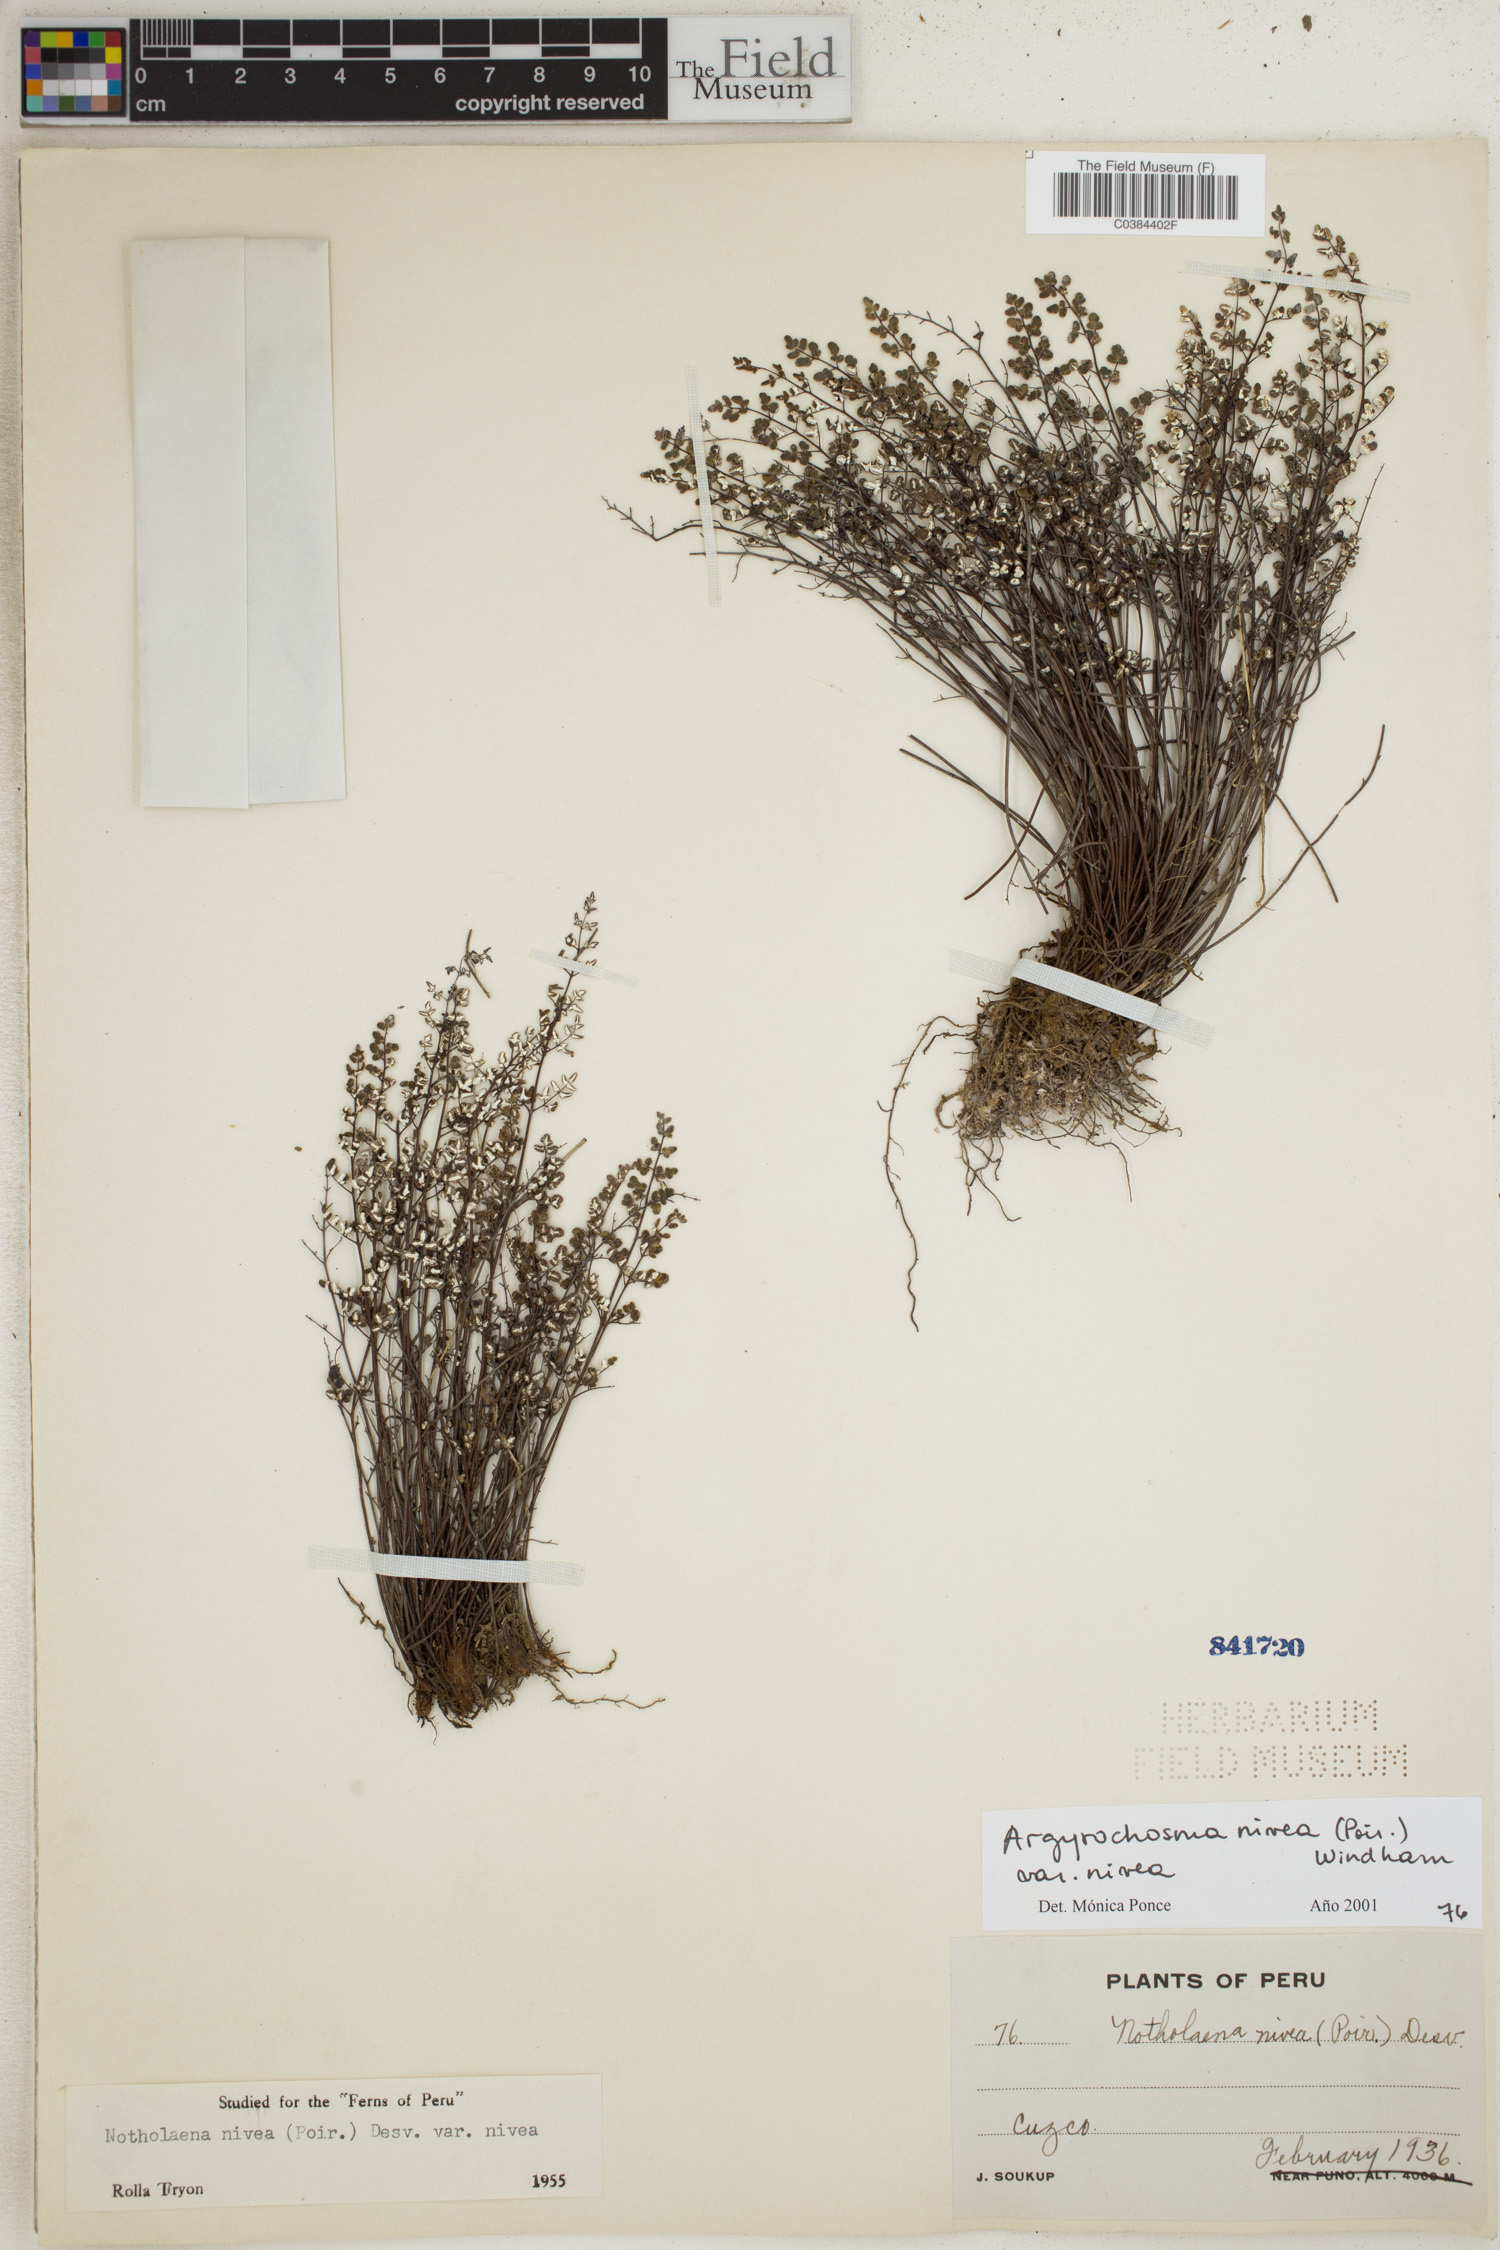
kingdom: Plantae
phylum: Tracheophyta
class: Polypodiopsida
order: Polypodiales
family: Pteridaceae
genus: Argyrochosma
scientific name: Argyrochosma nivea
